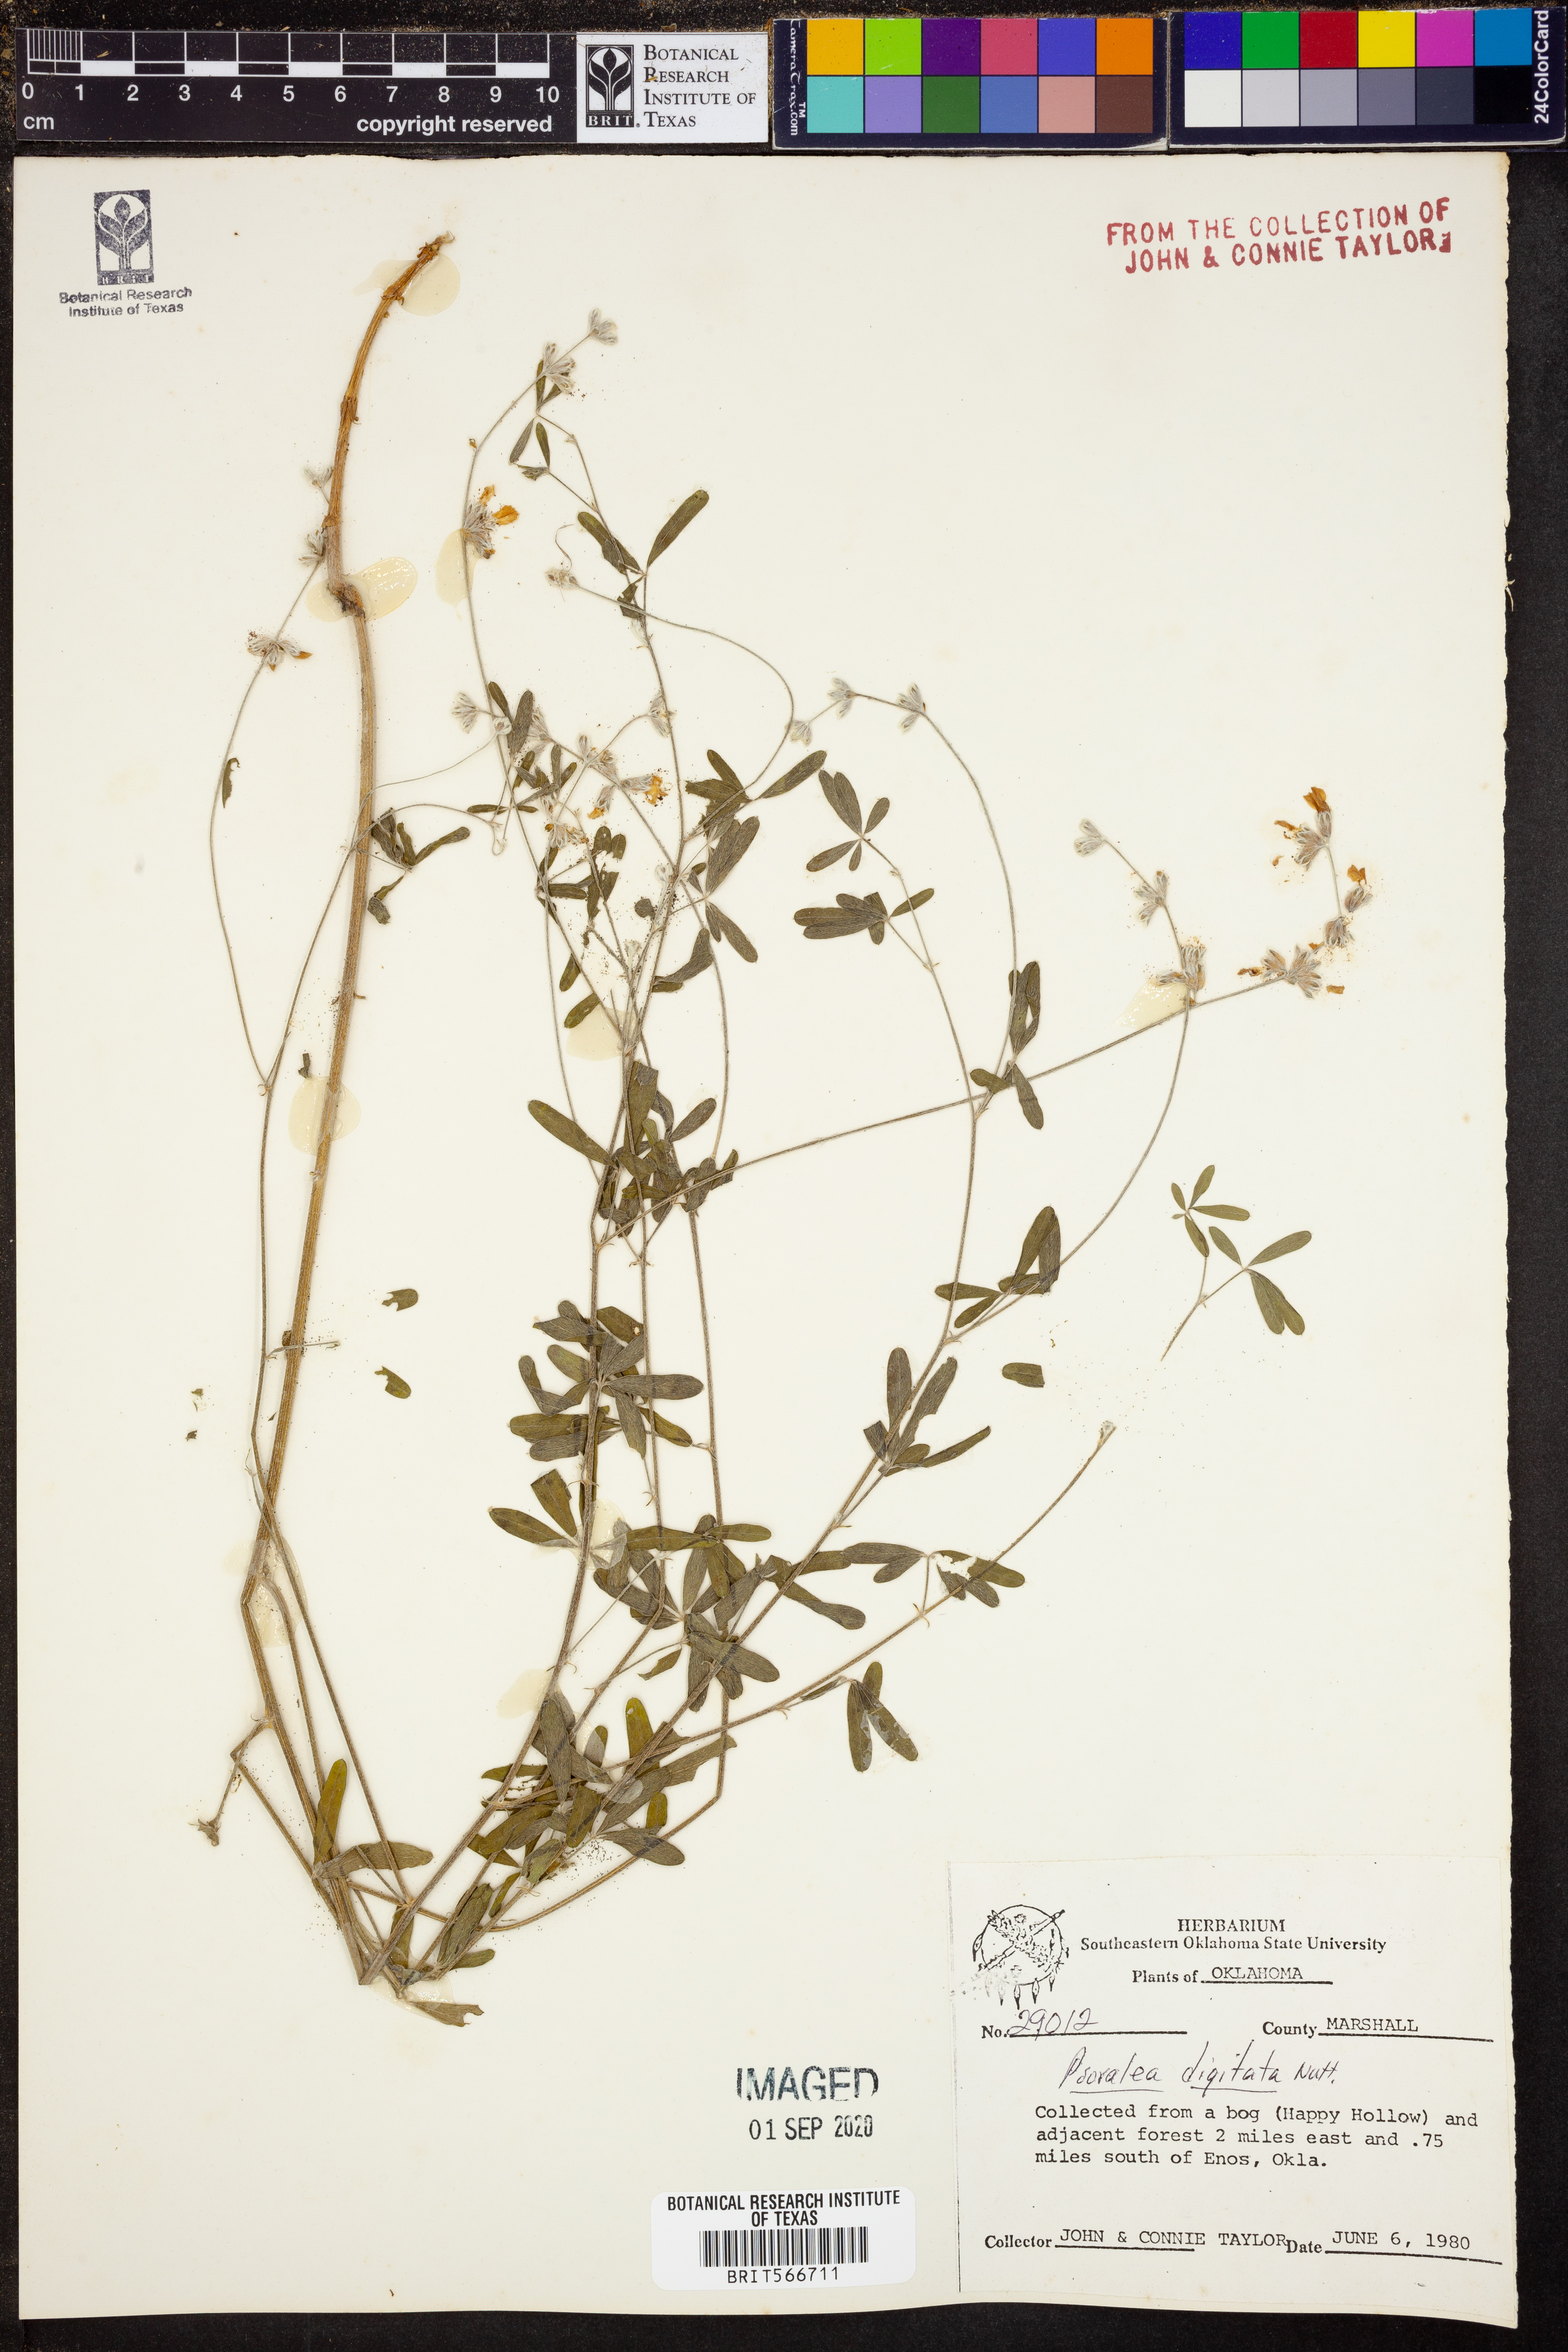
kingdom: Plantae
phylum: Tracheophyta
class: Magnoliopsida
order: Fabales
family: Fabaceae
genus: Pediomelum
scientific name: Pediomelum digitatum
